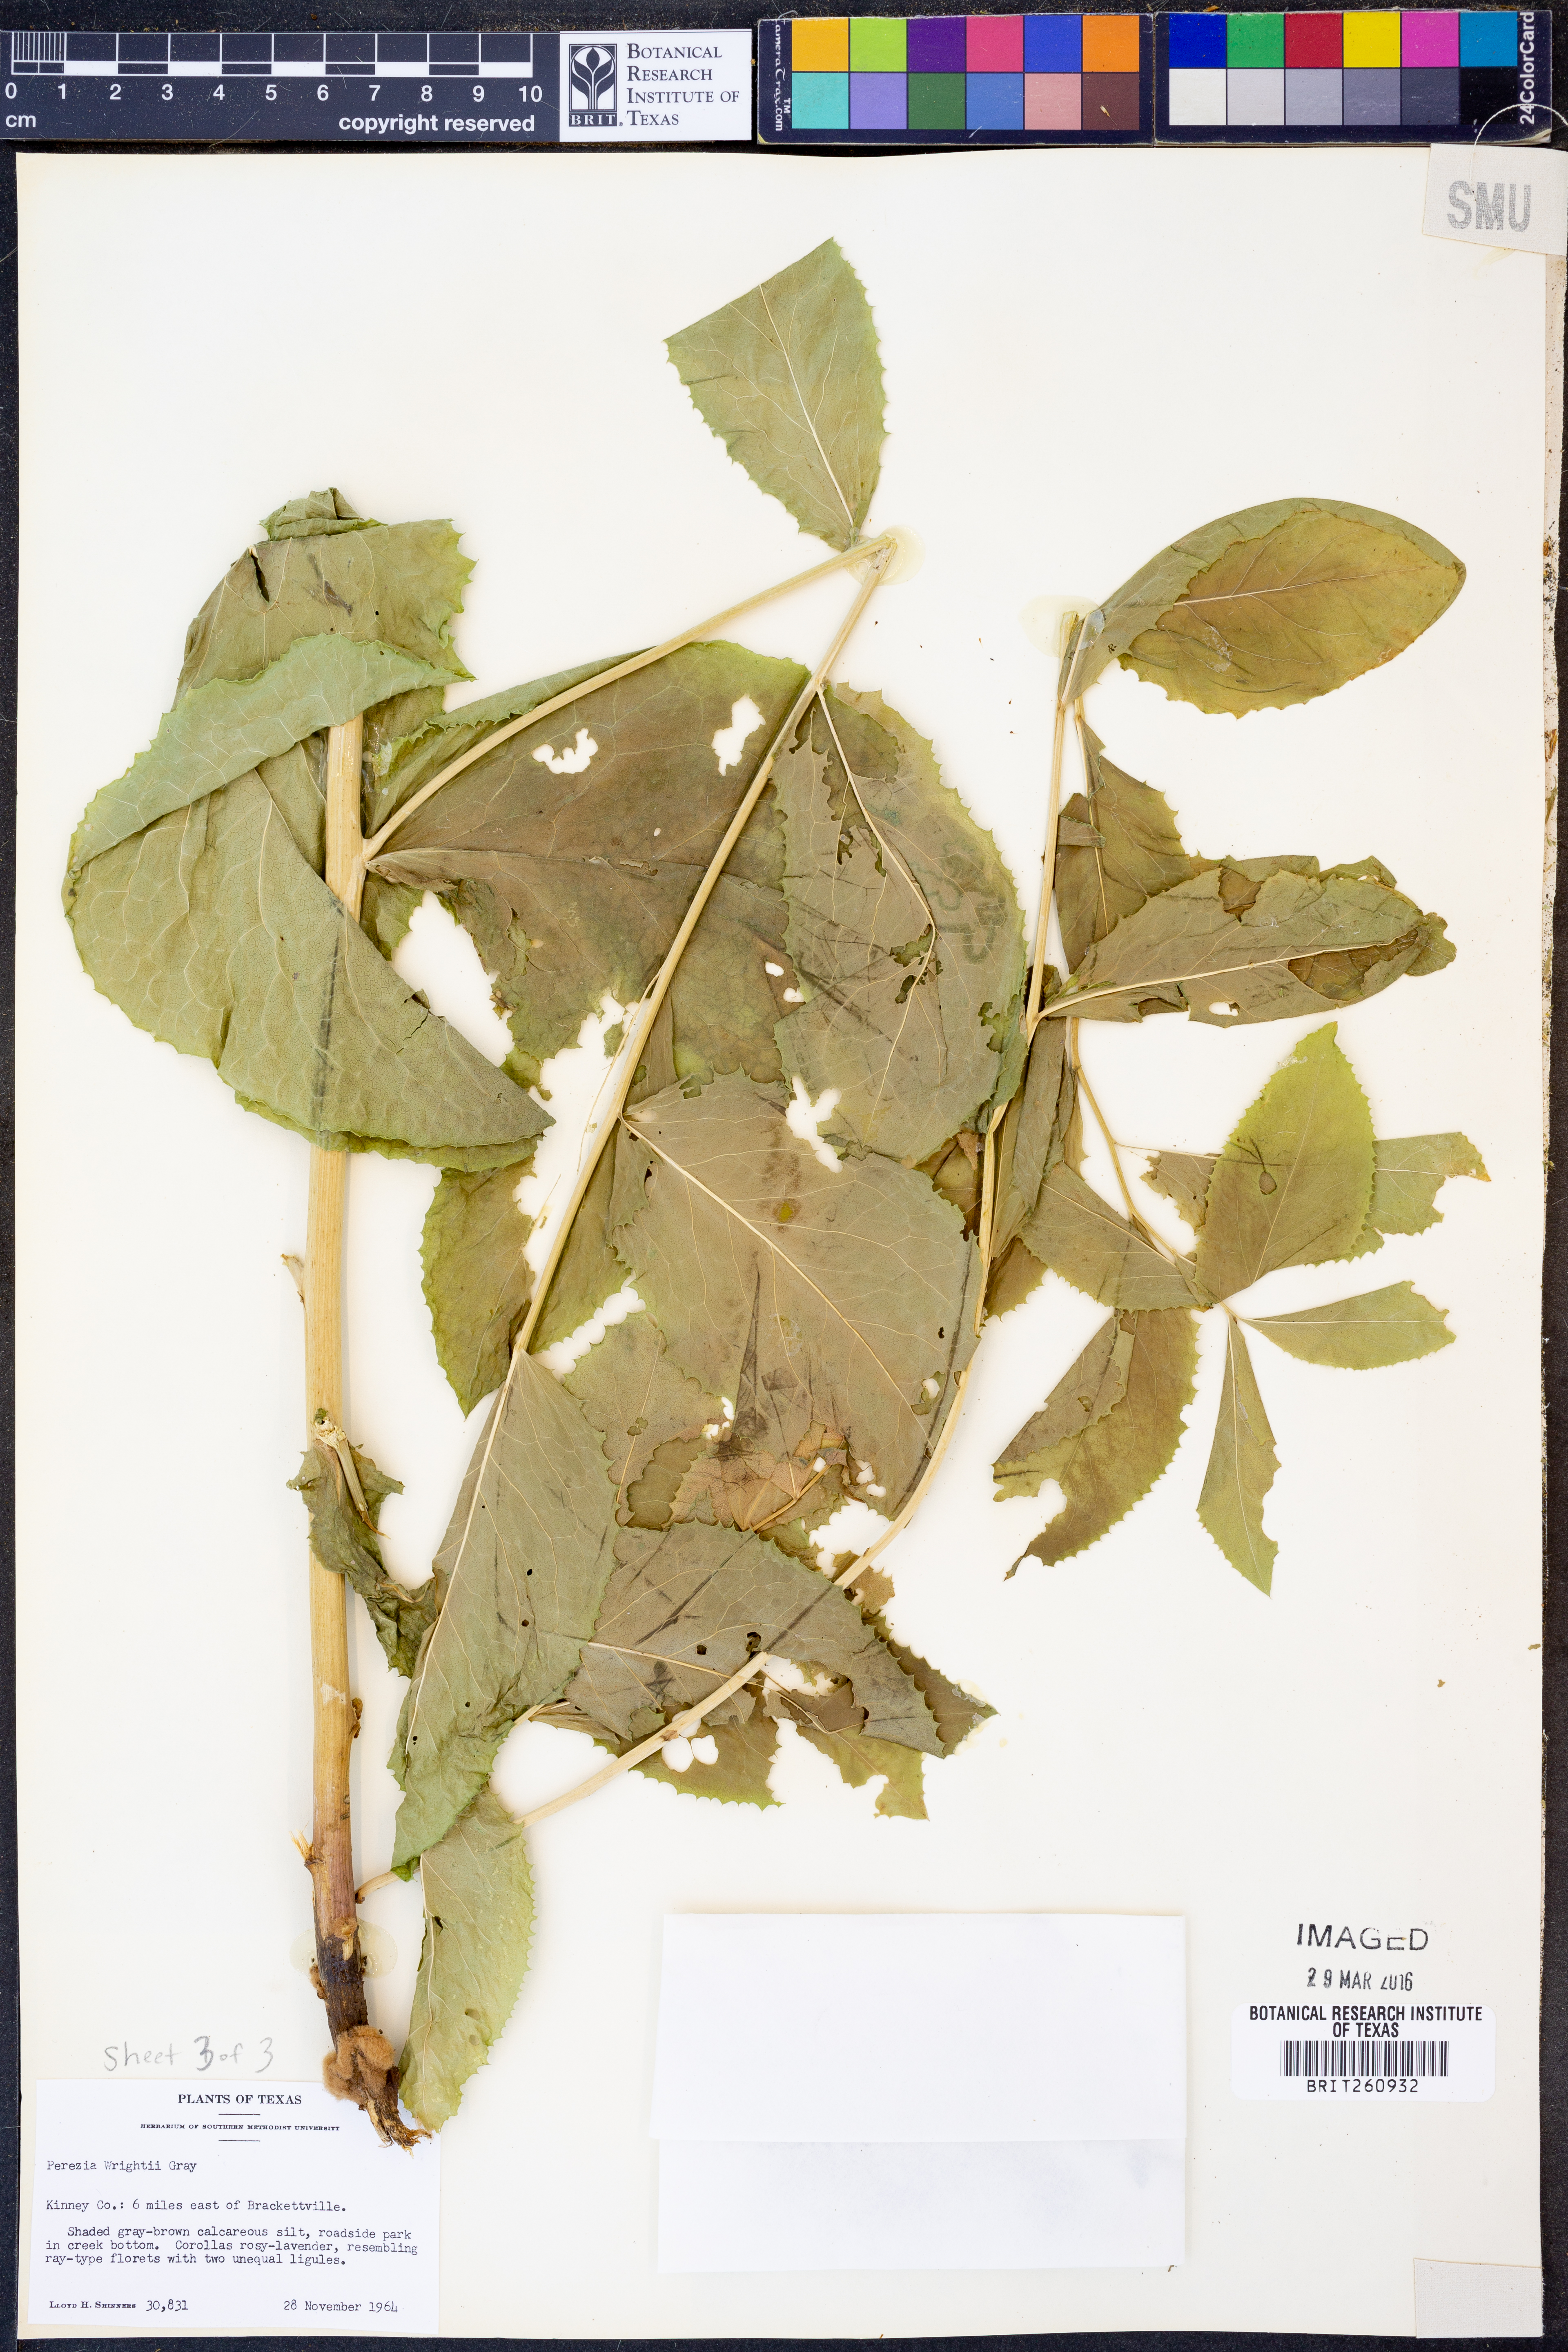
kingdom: Plantae
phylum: Tracheophyta
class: Magnoliopsida
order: Asterales
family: Asteraceae
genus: Acourtia
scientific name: Acourtia wrightii
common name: Brownfoot
